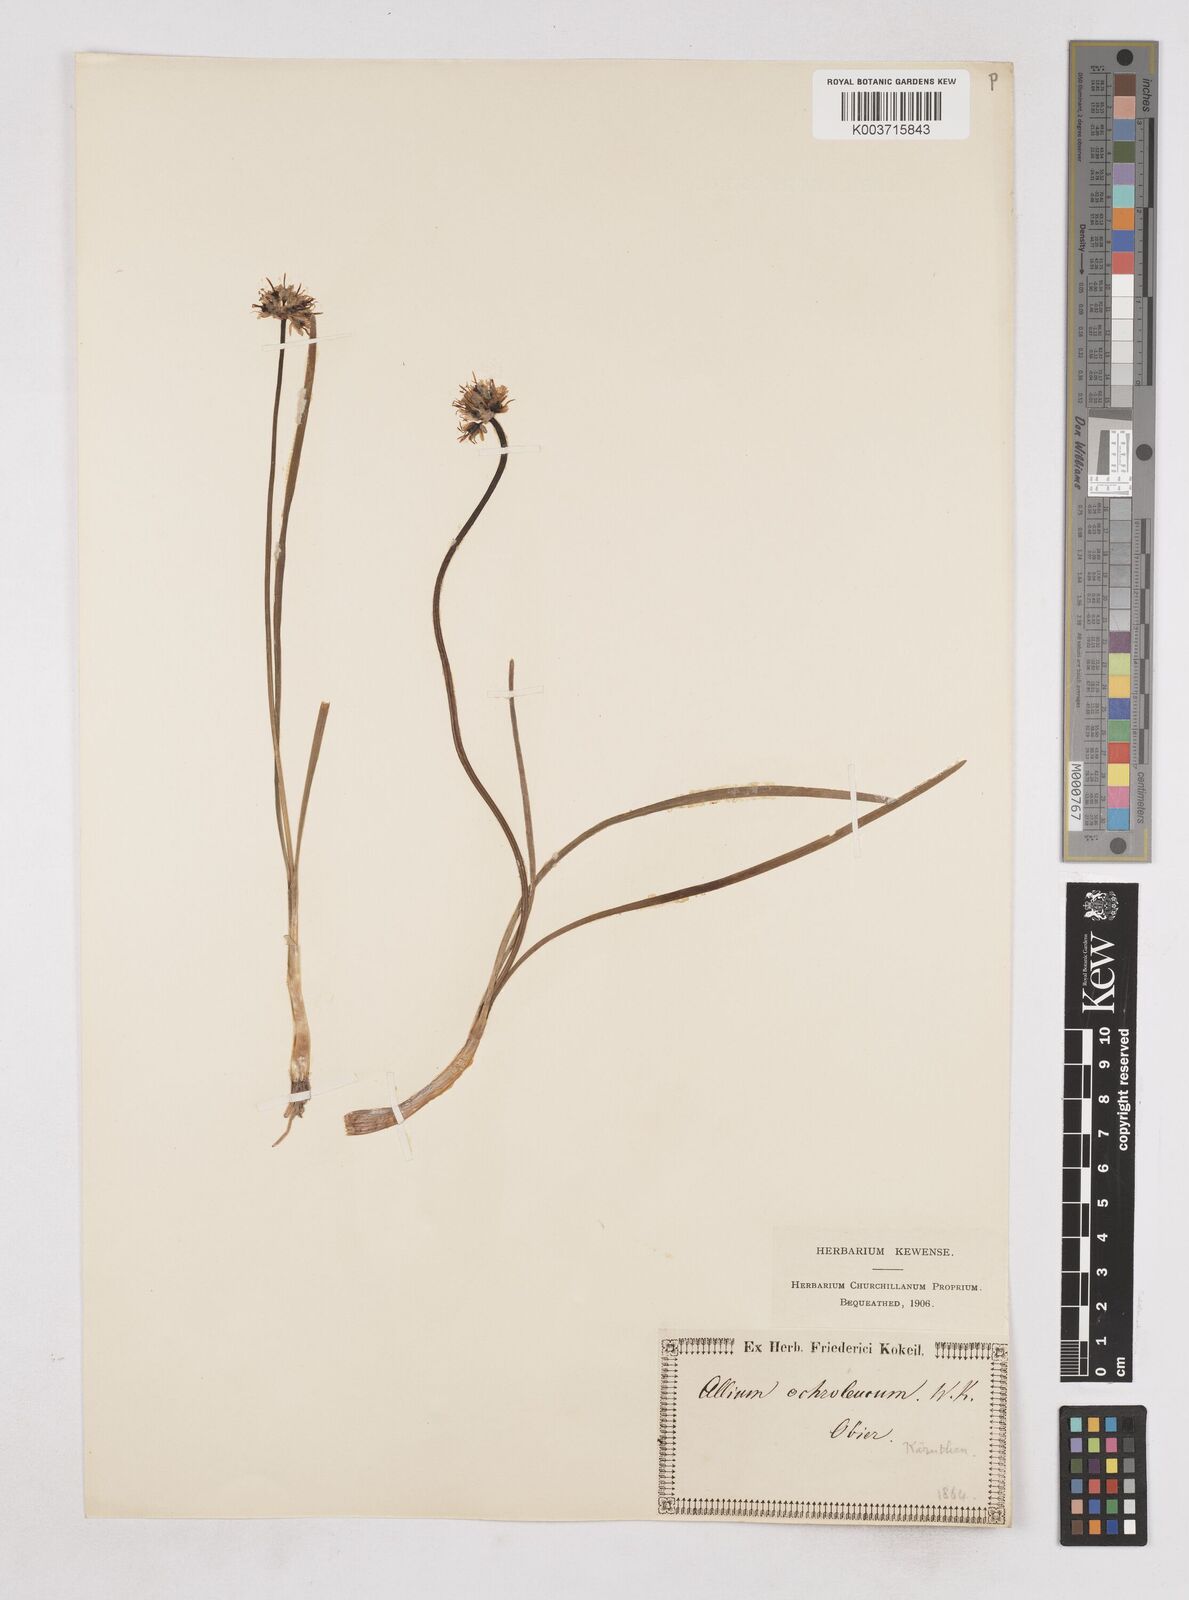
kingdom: Plantae
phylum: Tracheophyta
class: Liliopsida
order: Asparagales
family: Amaryllidaceae
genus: Allium
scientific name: Allium ericetorum
